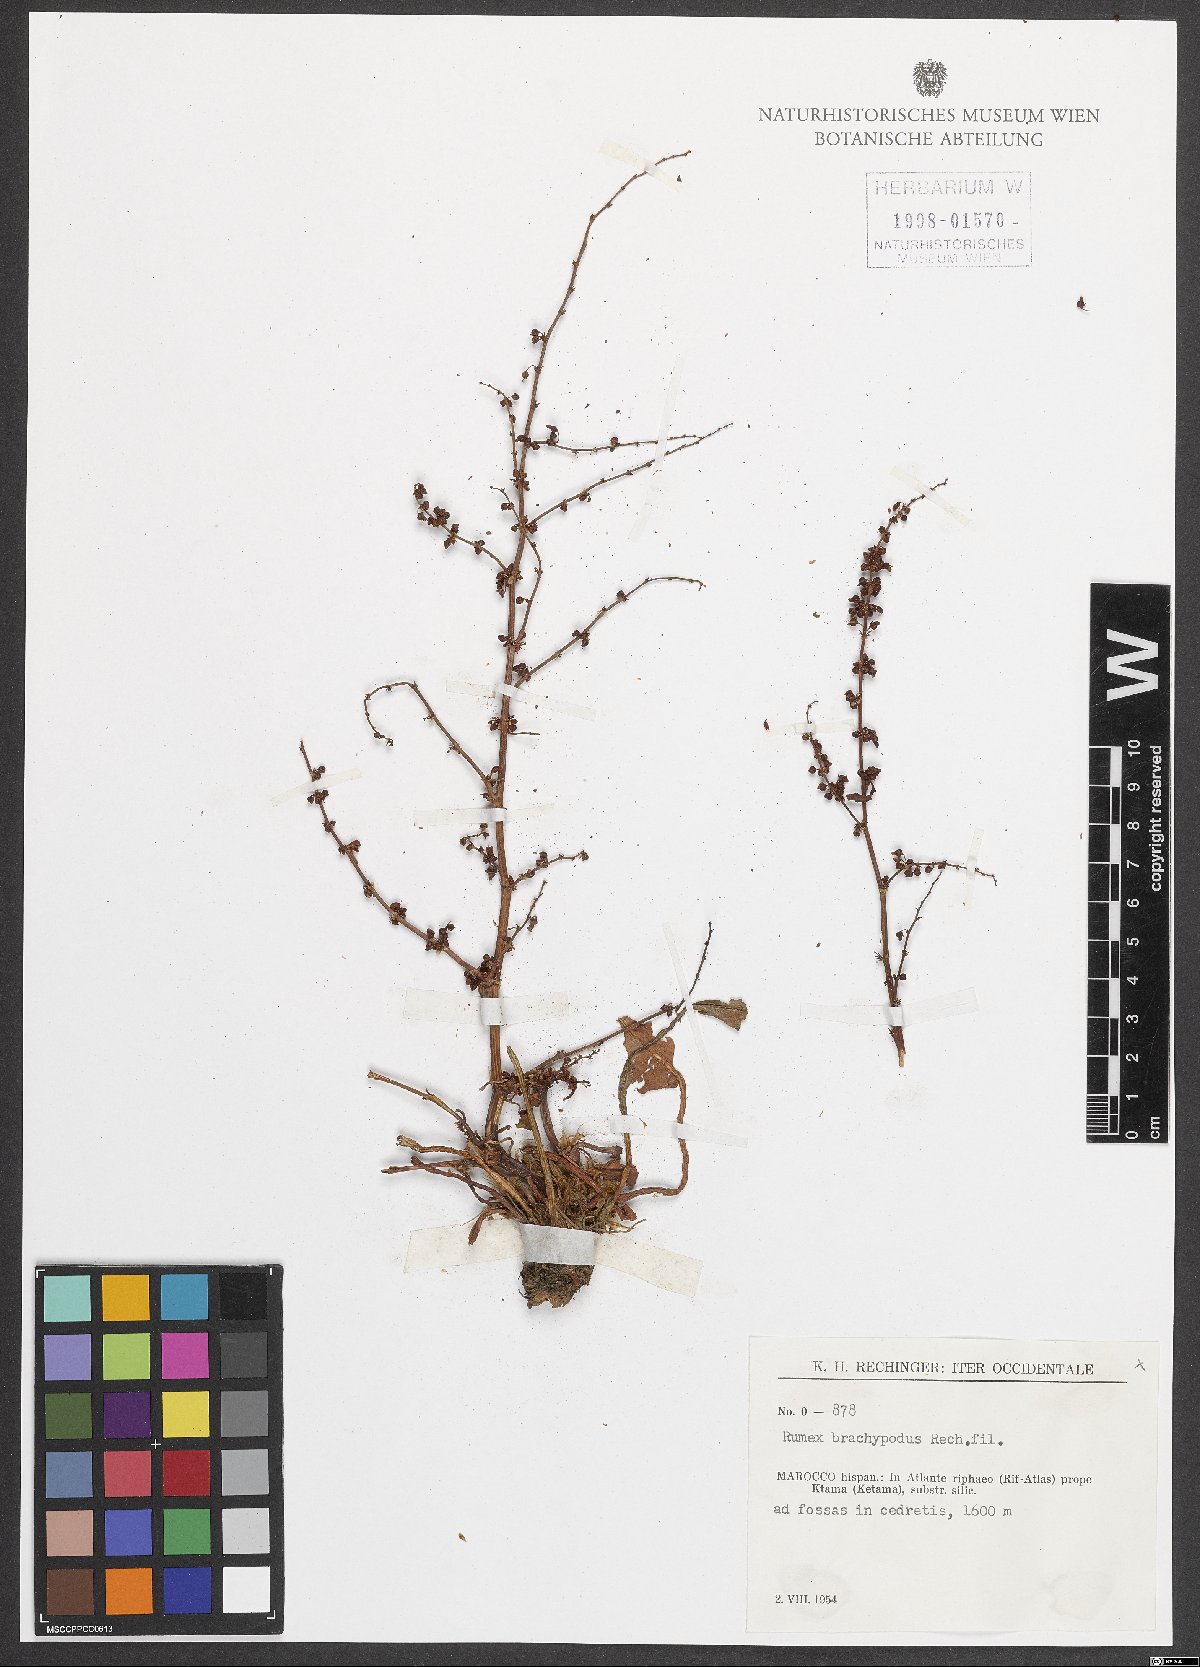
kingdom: Plantae
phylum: Tracheophyta
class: Magnoliopsida
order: Caryophyllales
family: Polygonaceae
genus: Rumex
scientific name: Rumex brachypodus
